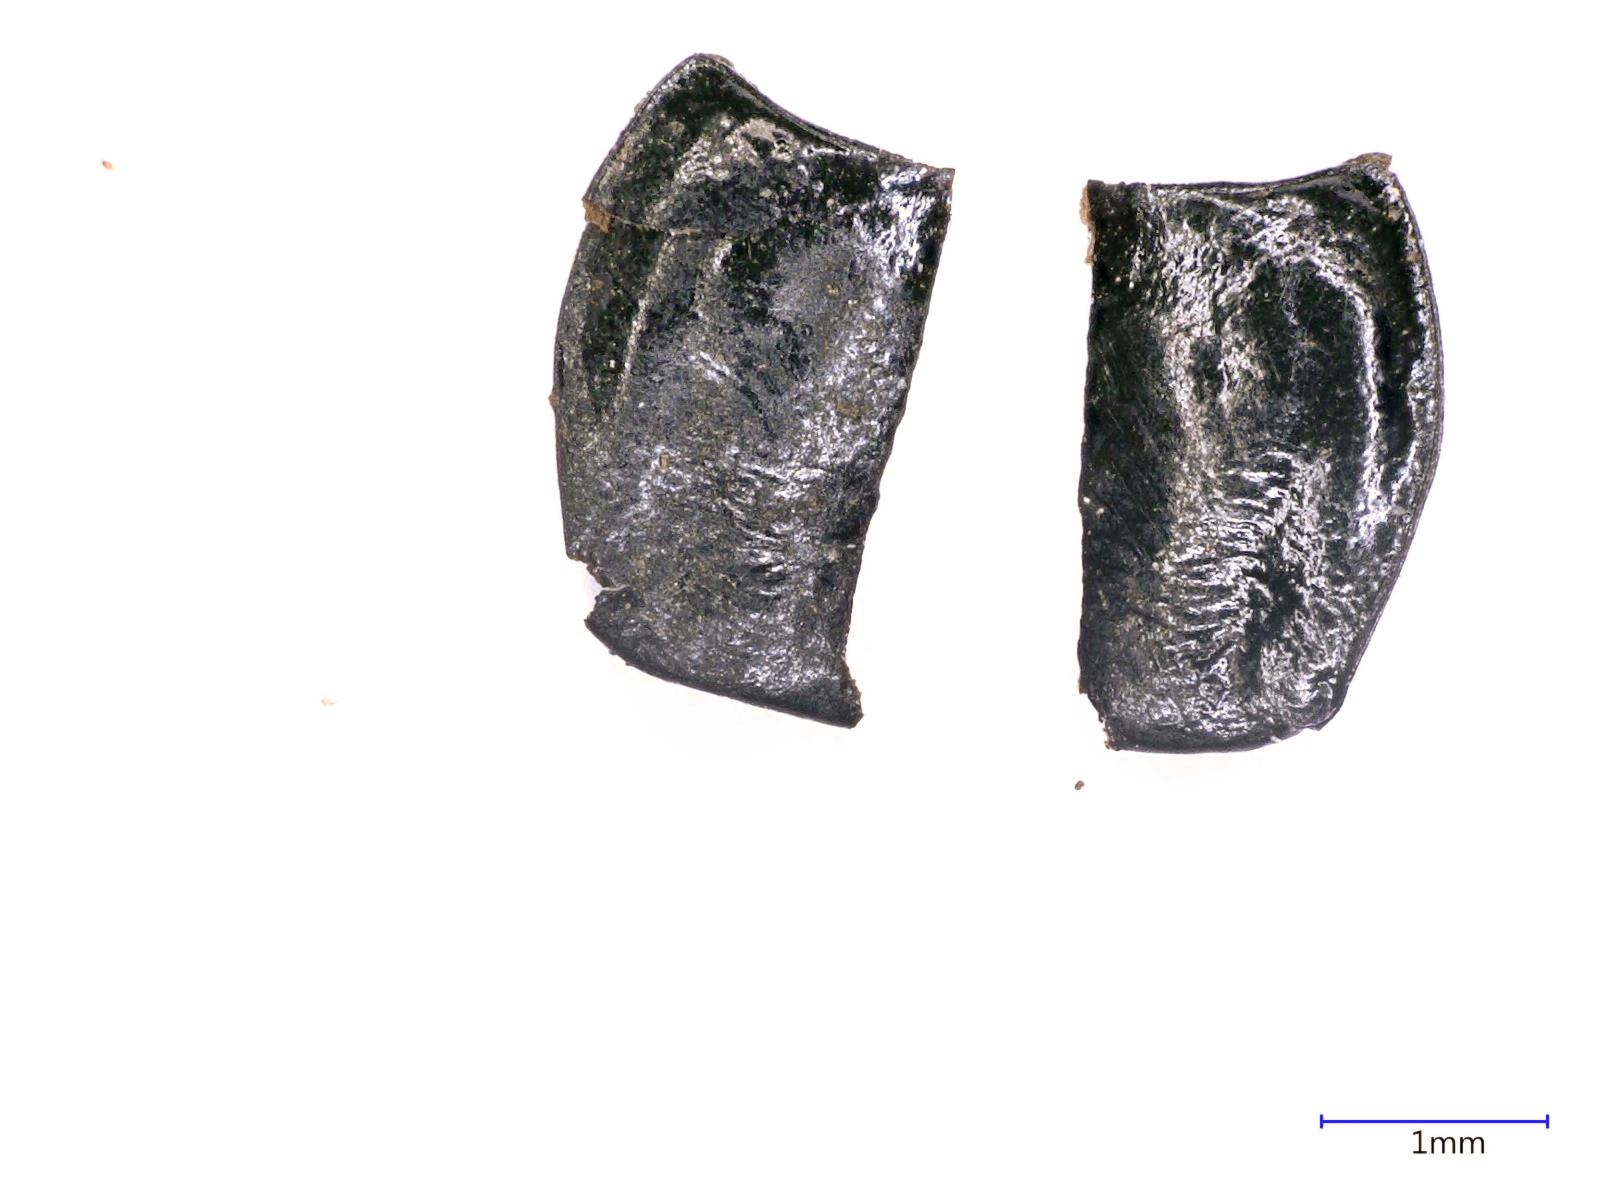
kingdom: Animalia
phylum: Arthropoda
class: Insecta
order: Coleoptera
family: Carabidae
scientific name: Carabidae
